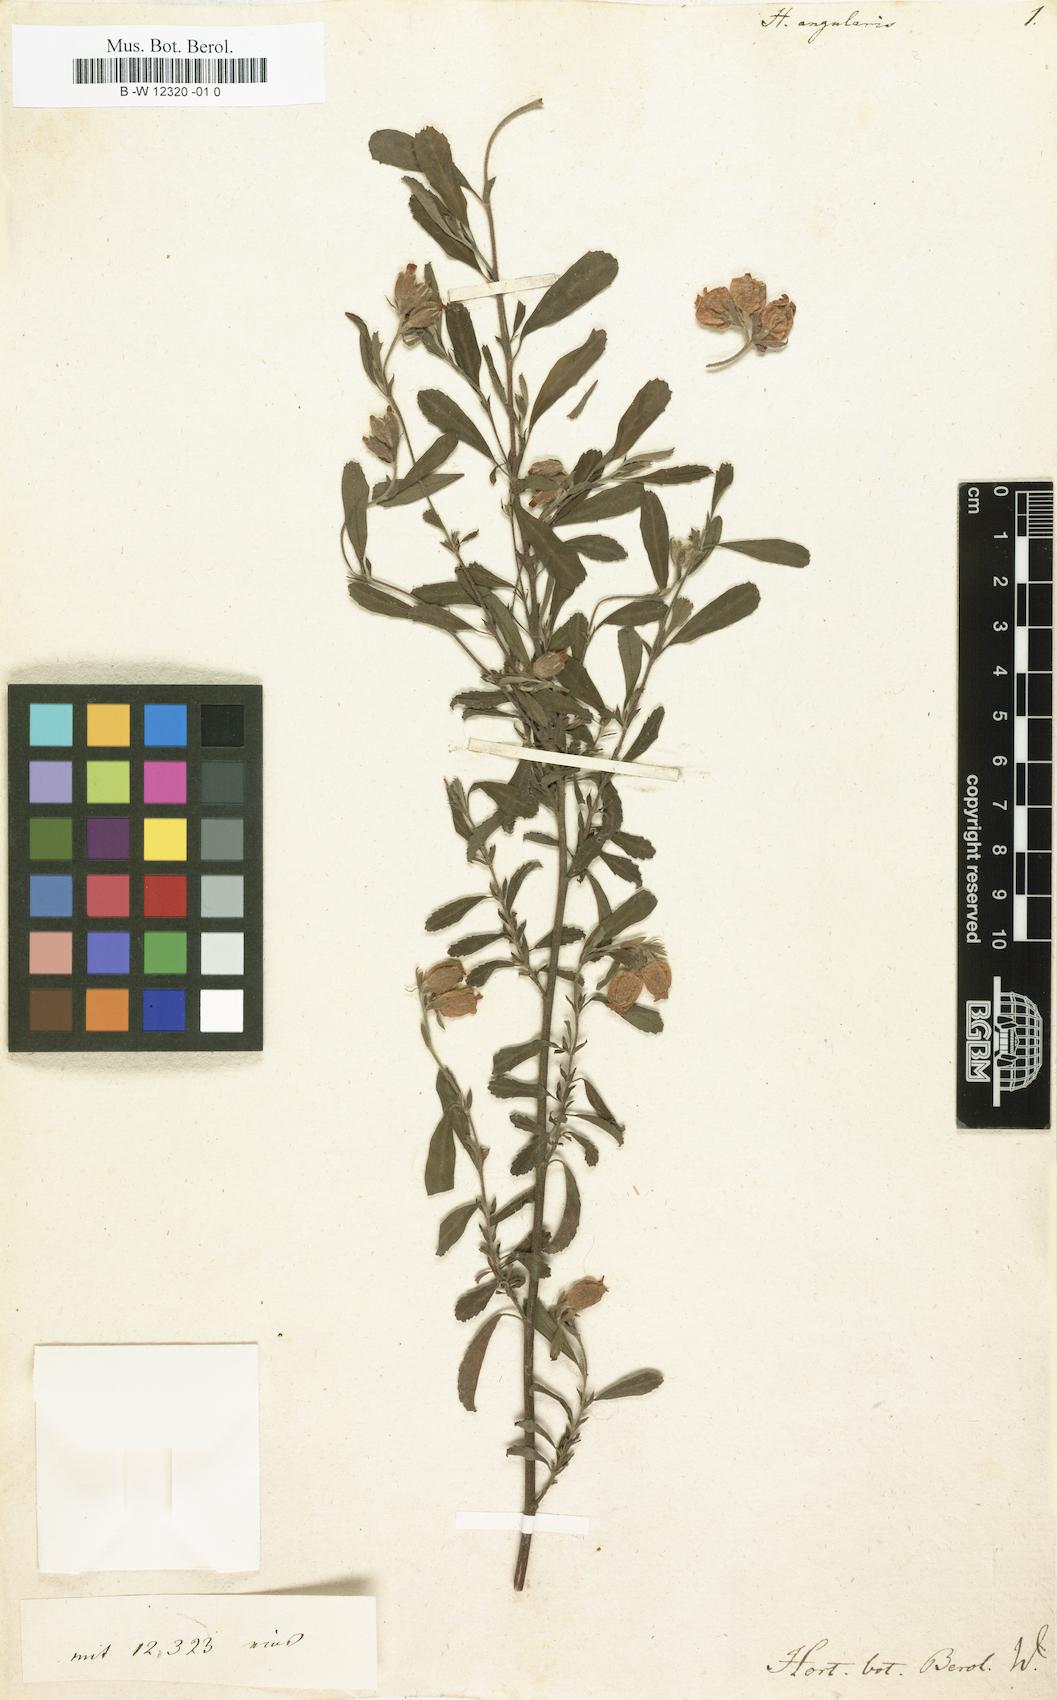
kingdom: Plantae
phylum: Tracheophyta
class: Magnoliopsida
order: Malvales
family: Malvaceae
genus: Hermannia
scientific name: Hermannia angularis
